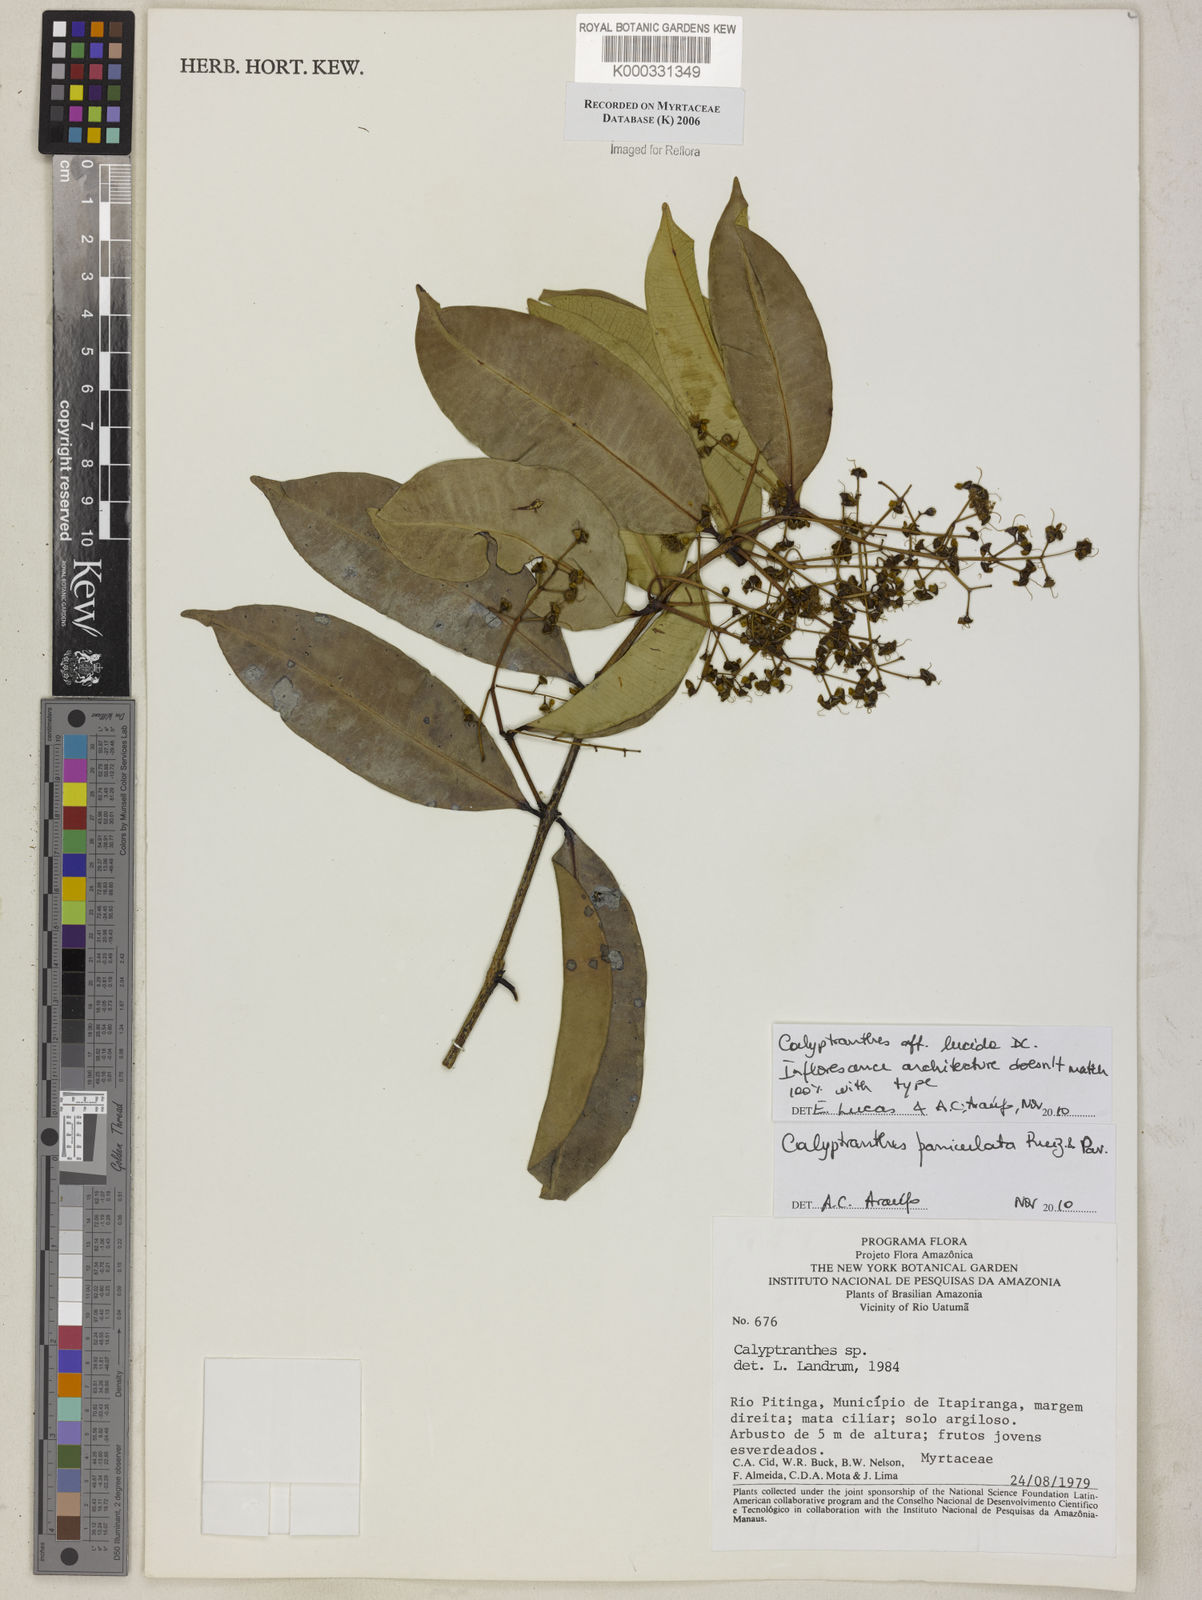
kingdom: Plantae
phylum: Tracheophyta
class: Magnoliopsida
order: Myrtales
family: Myrtaceae
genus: Calyptranthes
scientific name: Calyptranthes
